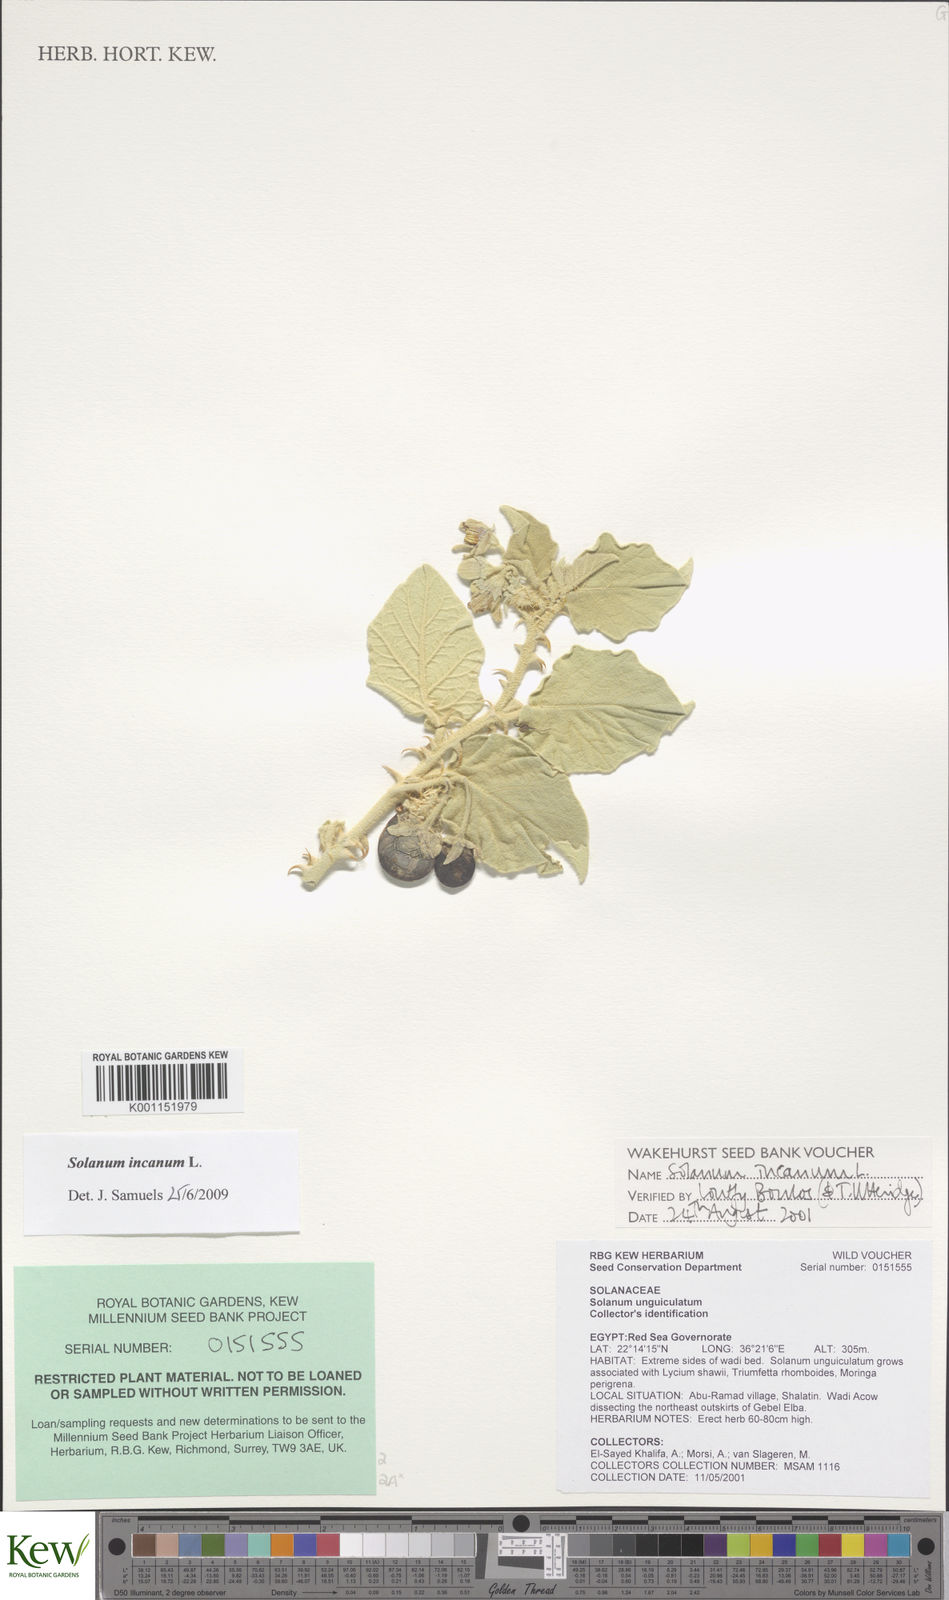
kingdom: Plantae
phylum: Tracheophyta
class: Magnoliopsida
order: Solanales
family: Solanaceae
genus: Solanum
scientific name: Solanum incanum
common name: Bitter apple
